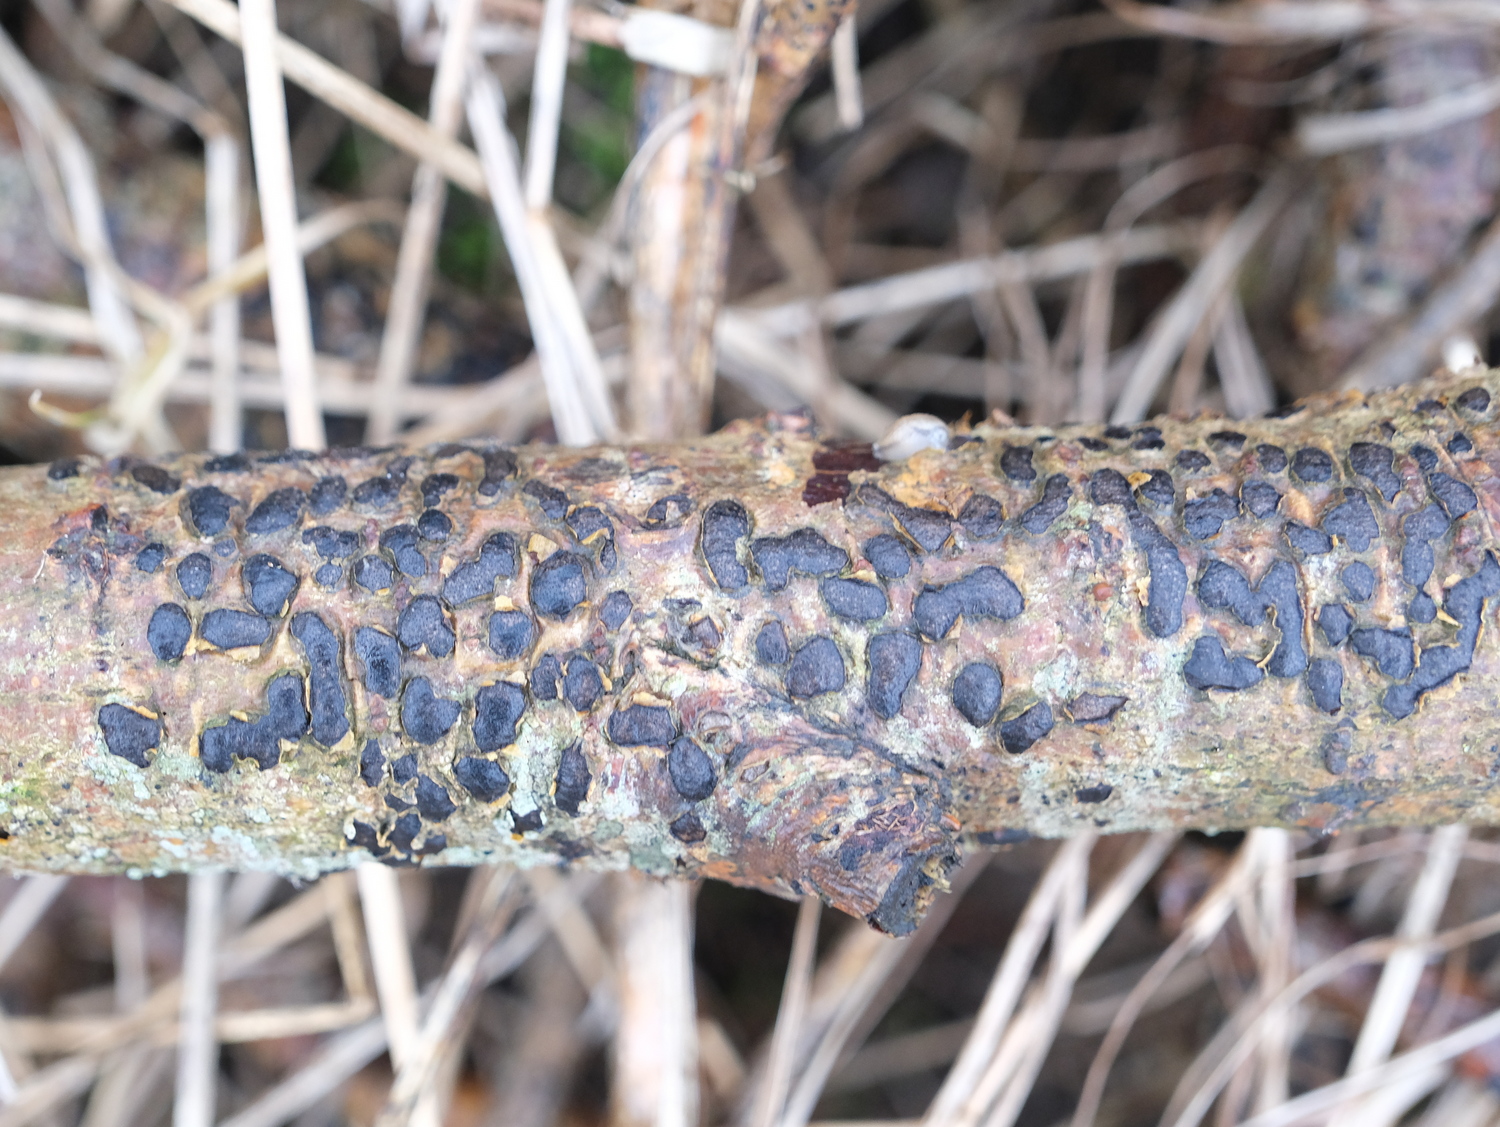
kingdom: Fungi
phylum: Ascomycota
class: Sordariomycetes
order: Xylariales
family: Diatrypaceae
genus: Diatrype
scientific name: Diatrype bullata
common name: pile-kulskorpe
